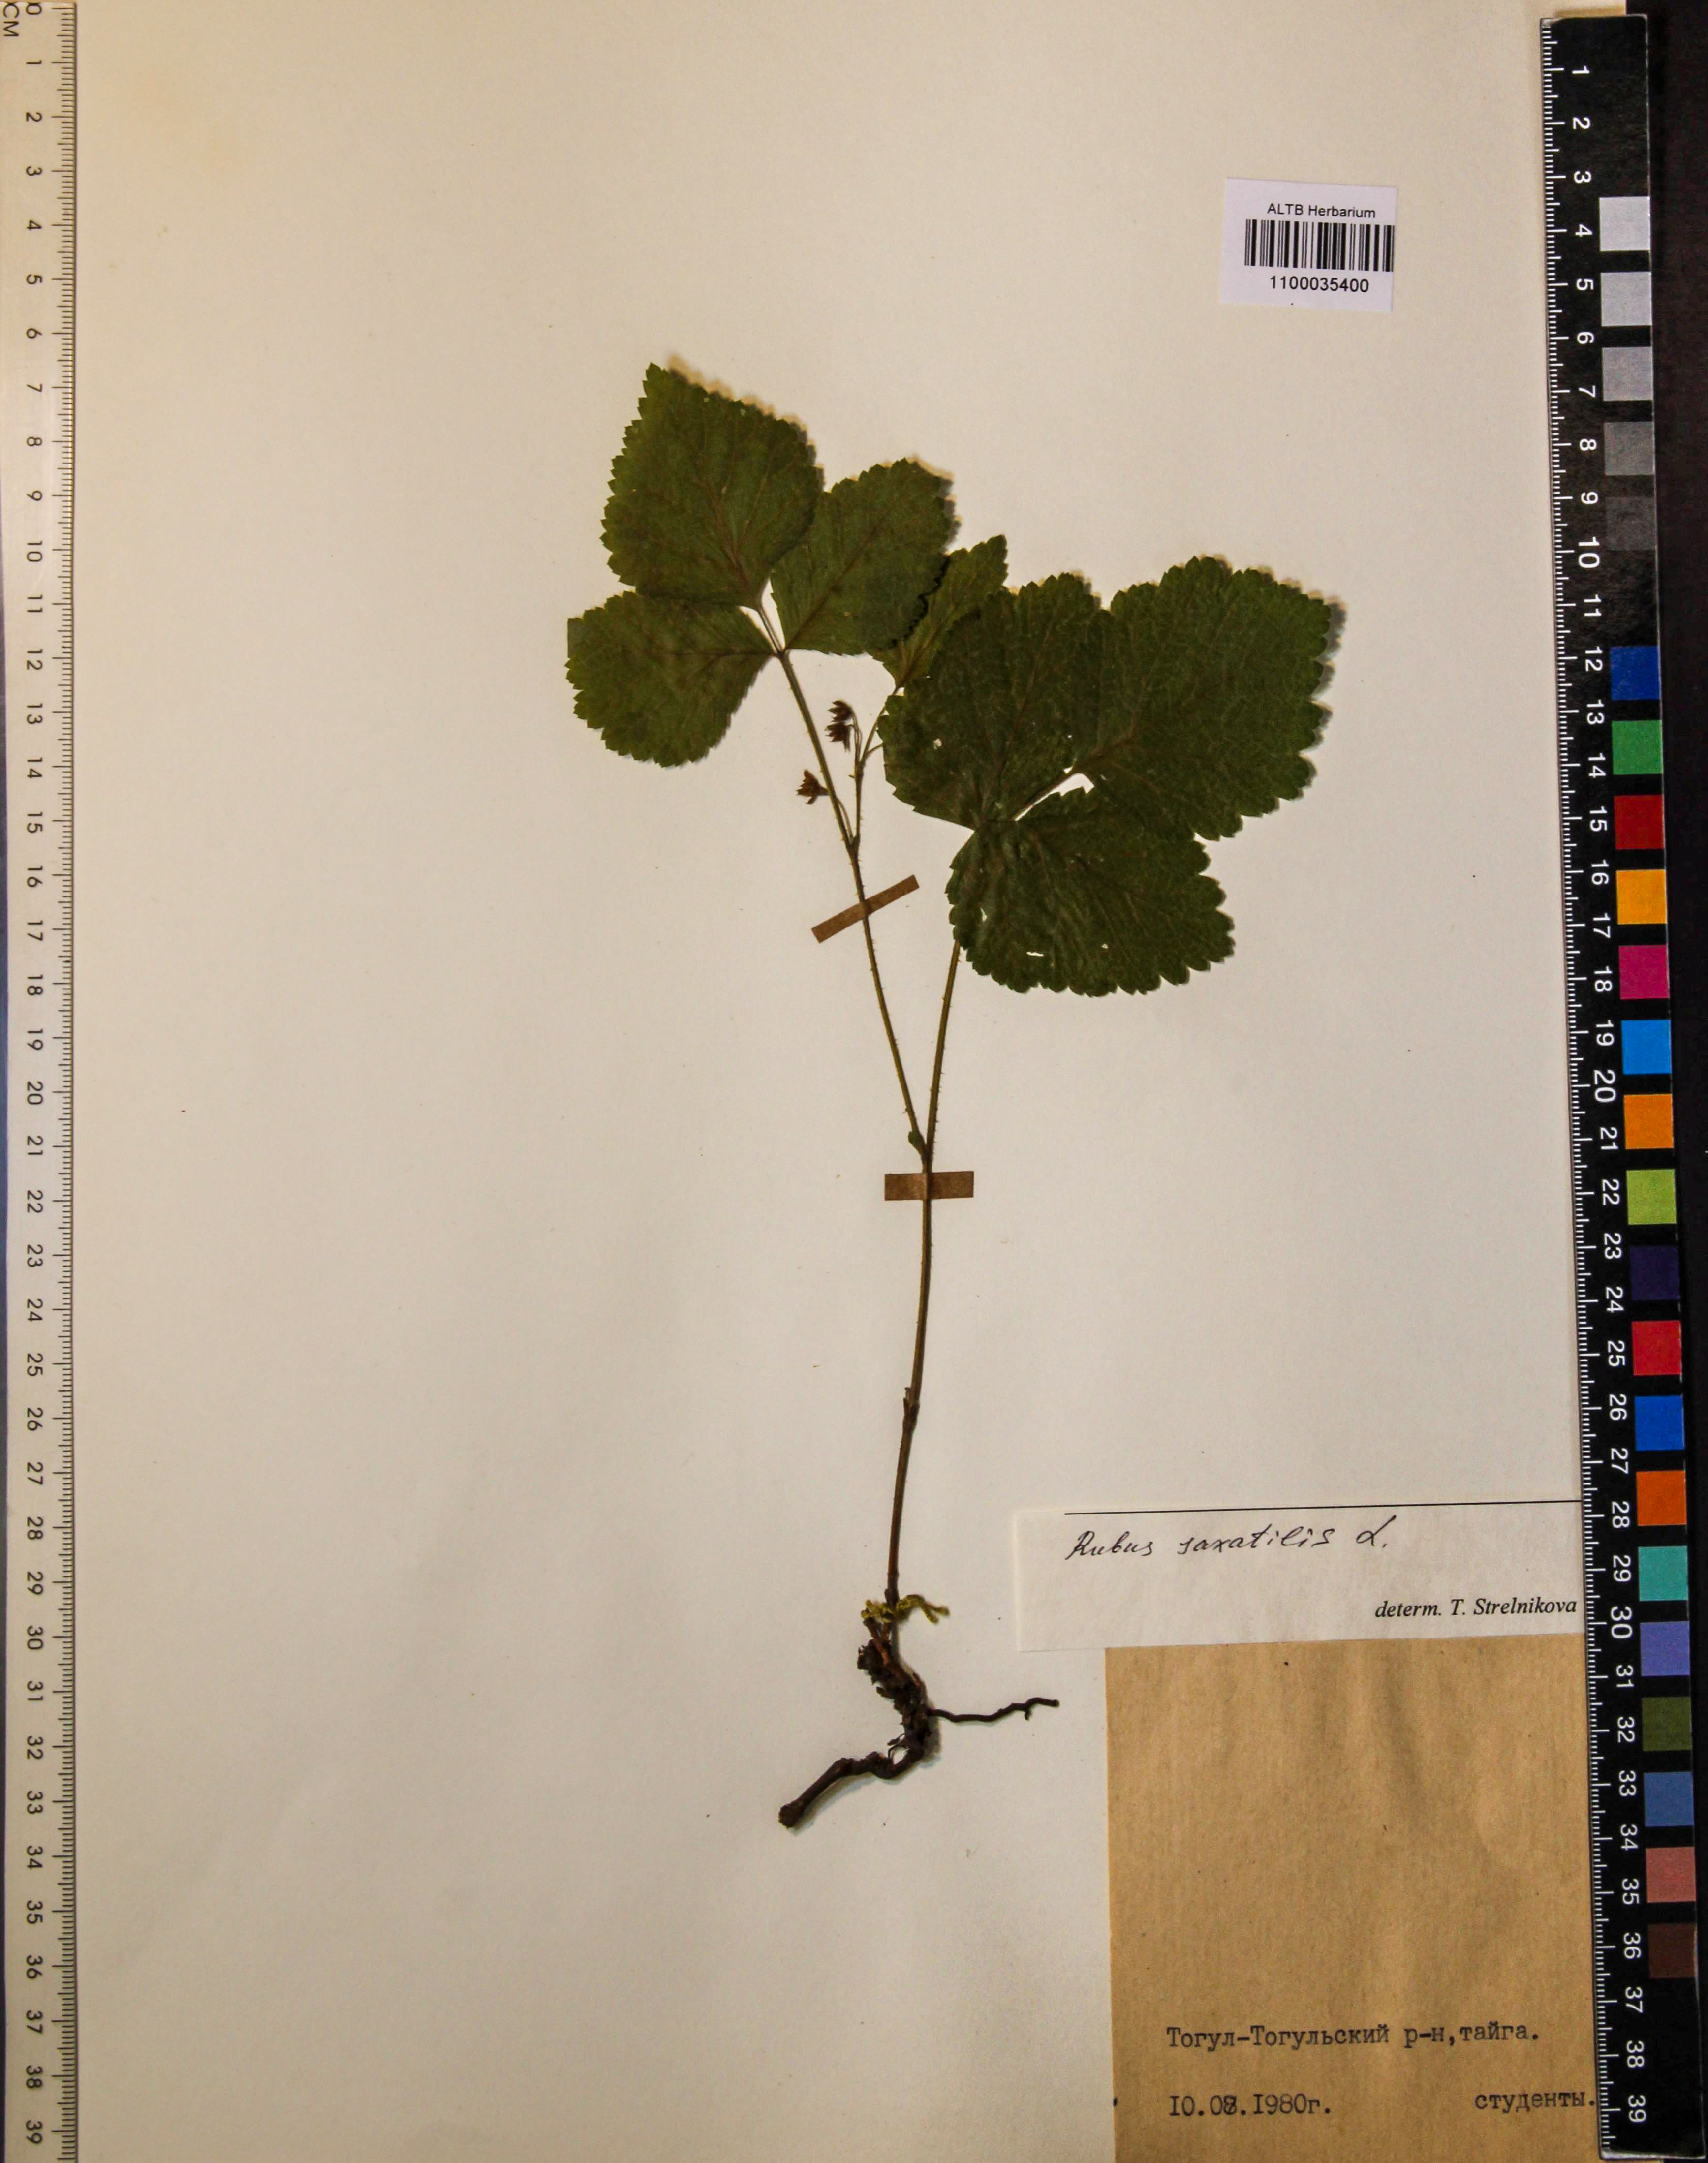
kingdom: Plantae
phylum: Tracheophyta
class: Magnoliopsida
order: Rosales
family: Rosaceae
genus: Rubus
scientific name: Rubus saxatilis
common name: Stone bramble
